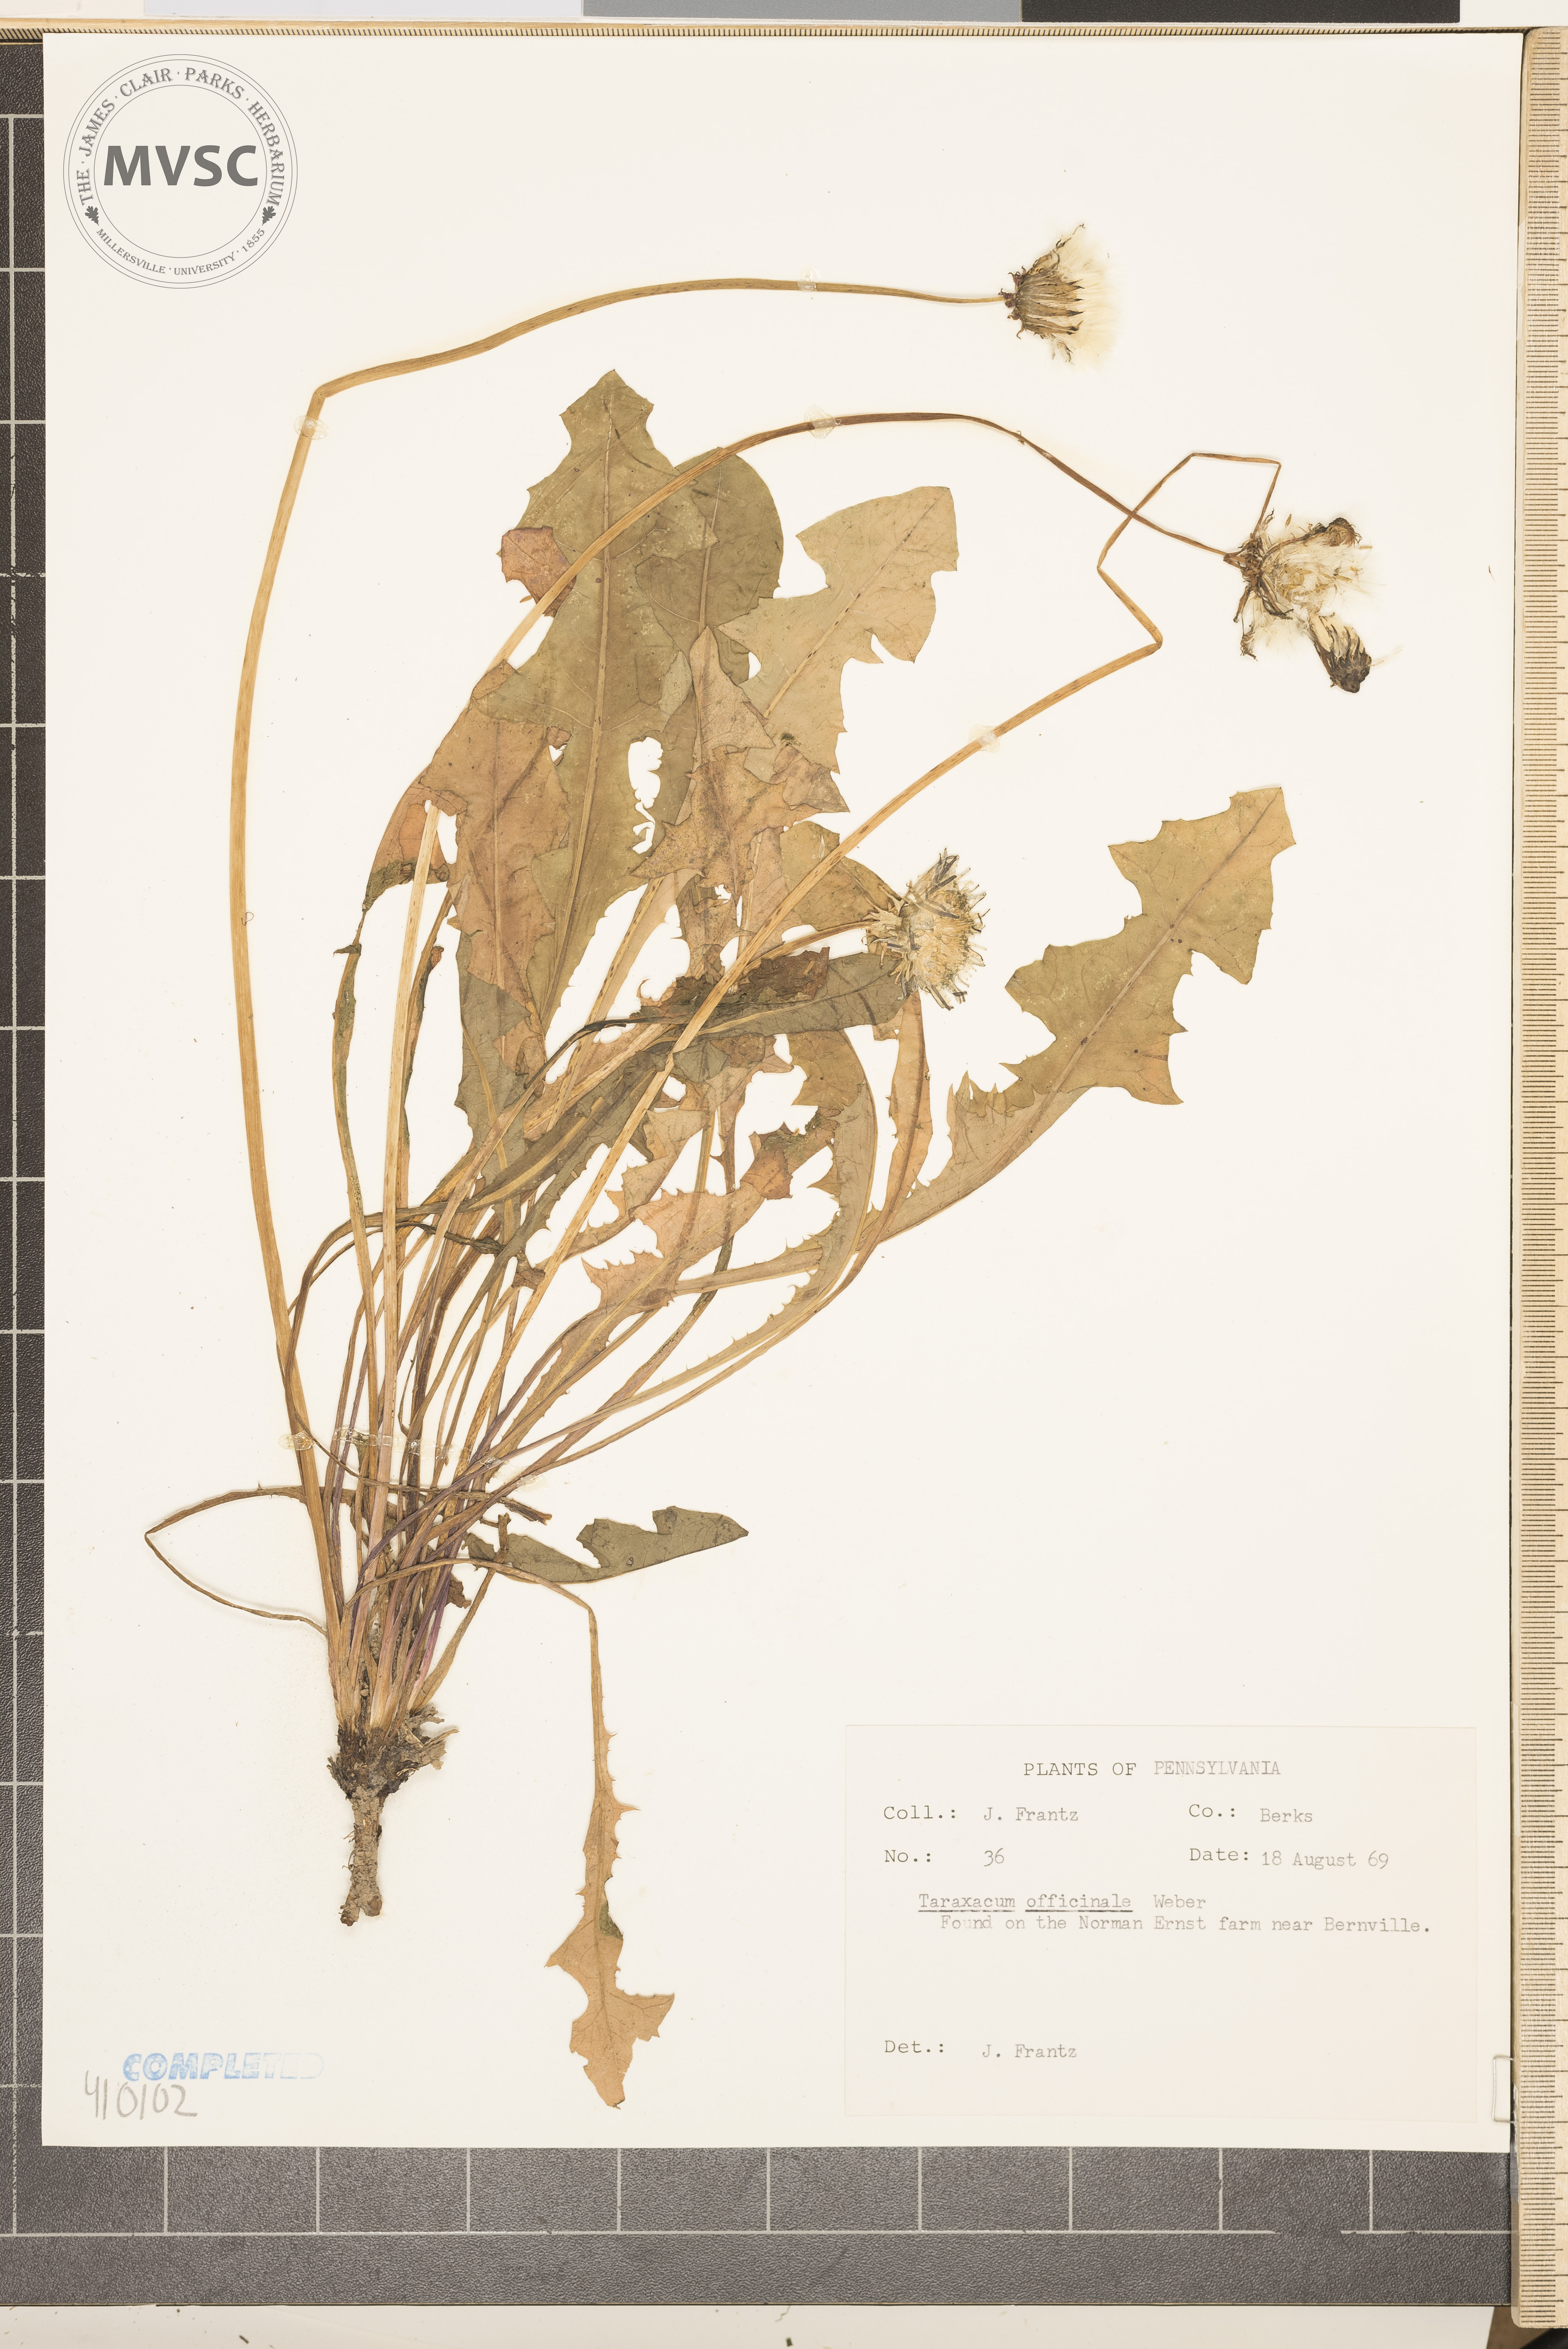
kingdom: Plantae
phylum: Tracheophyta
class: Magnoliopsida
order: Asterales
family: Asteraceae
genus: Taraxacum
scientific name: Taraxacum officinale
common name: Common dandelion
